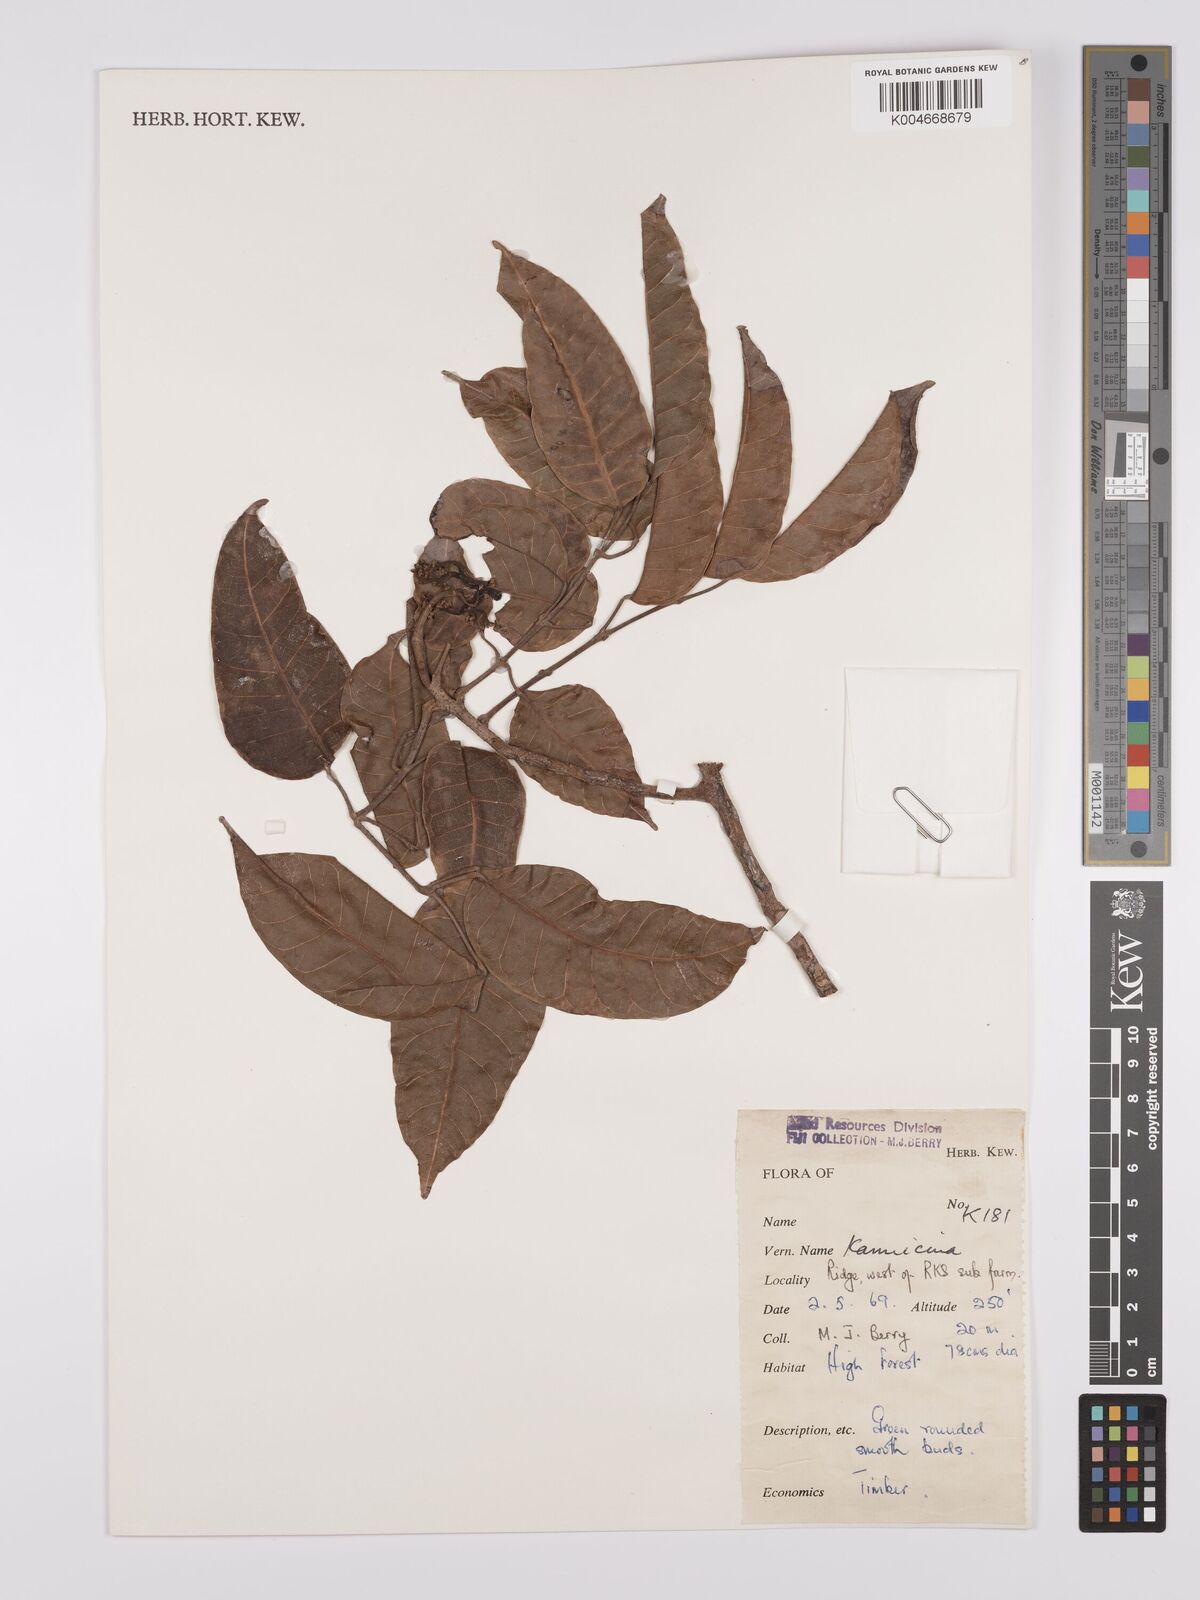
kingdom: Plantae
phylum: Tracheophyta
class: Magnoliopsida
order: Sapindales
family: Burseraceae
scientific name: Burseraceae
